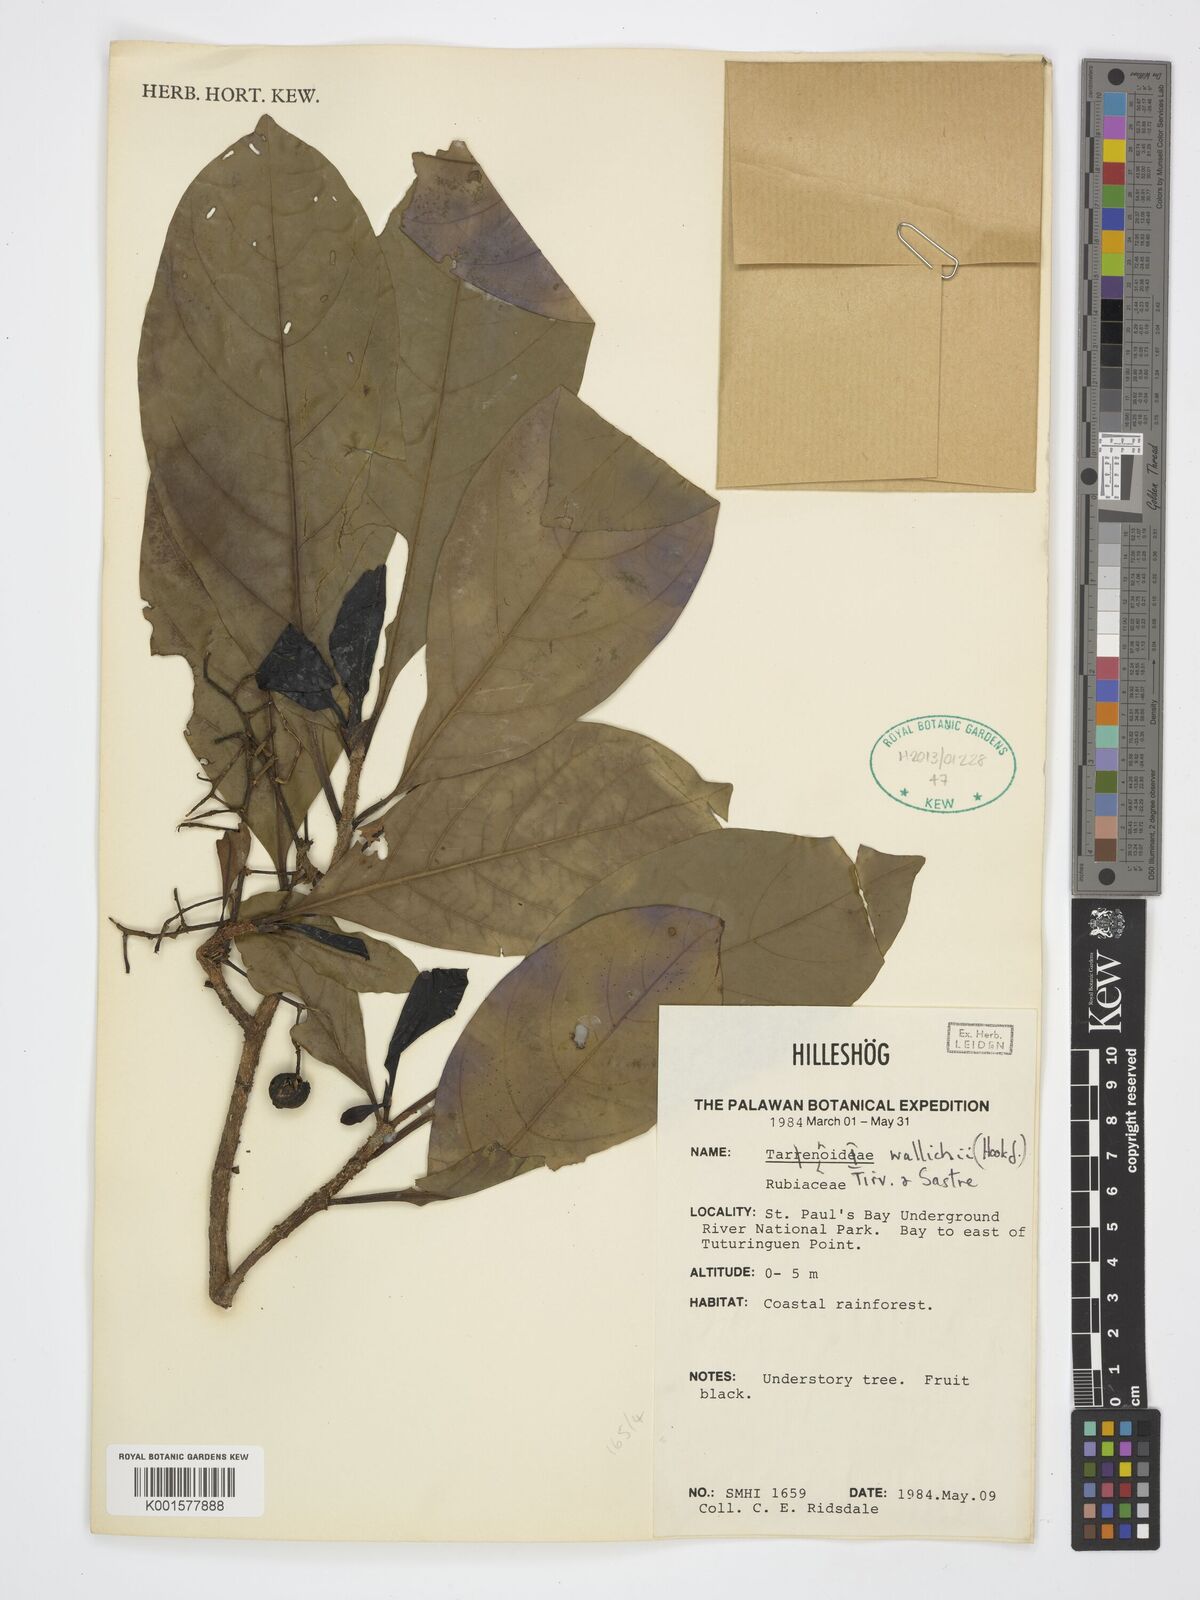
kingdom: Plantae
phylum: Tracheophyta
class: Magnoliopsida
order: Gentianales
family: Rubiaceae
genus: Tarennoidea
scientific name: Tarennoidea wallichii
